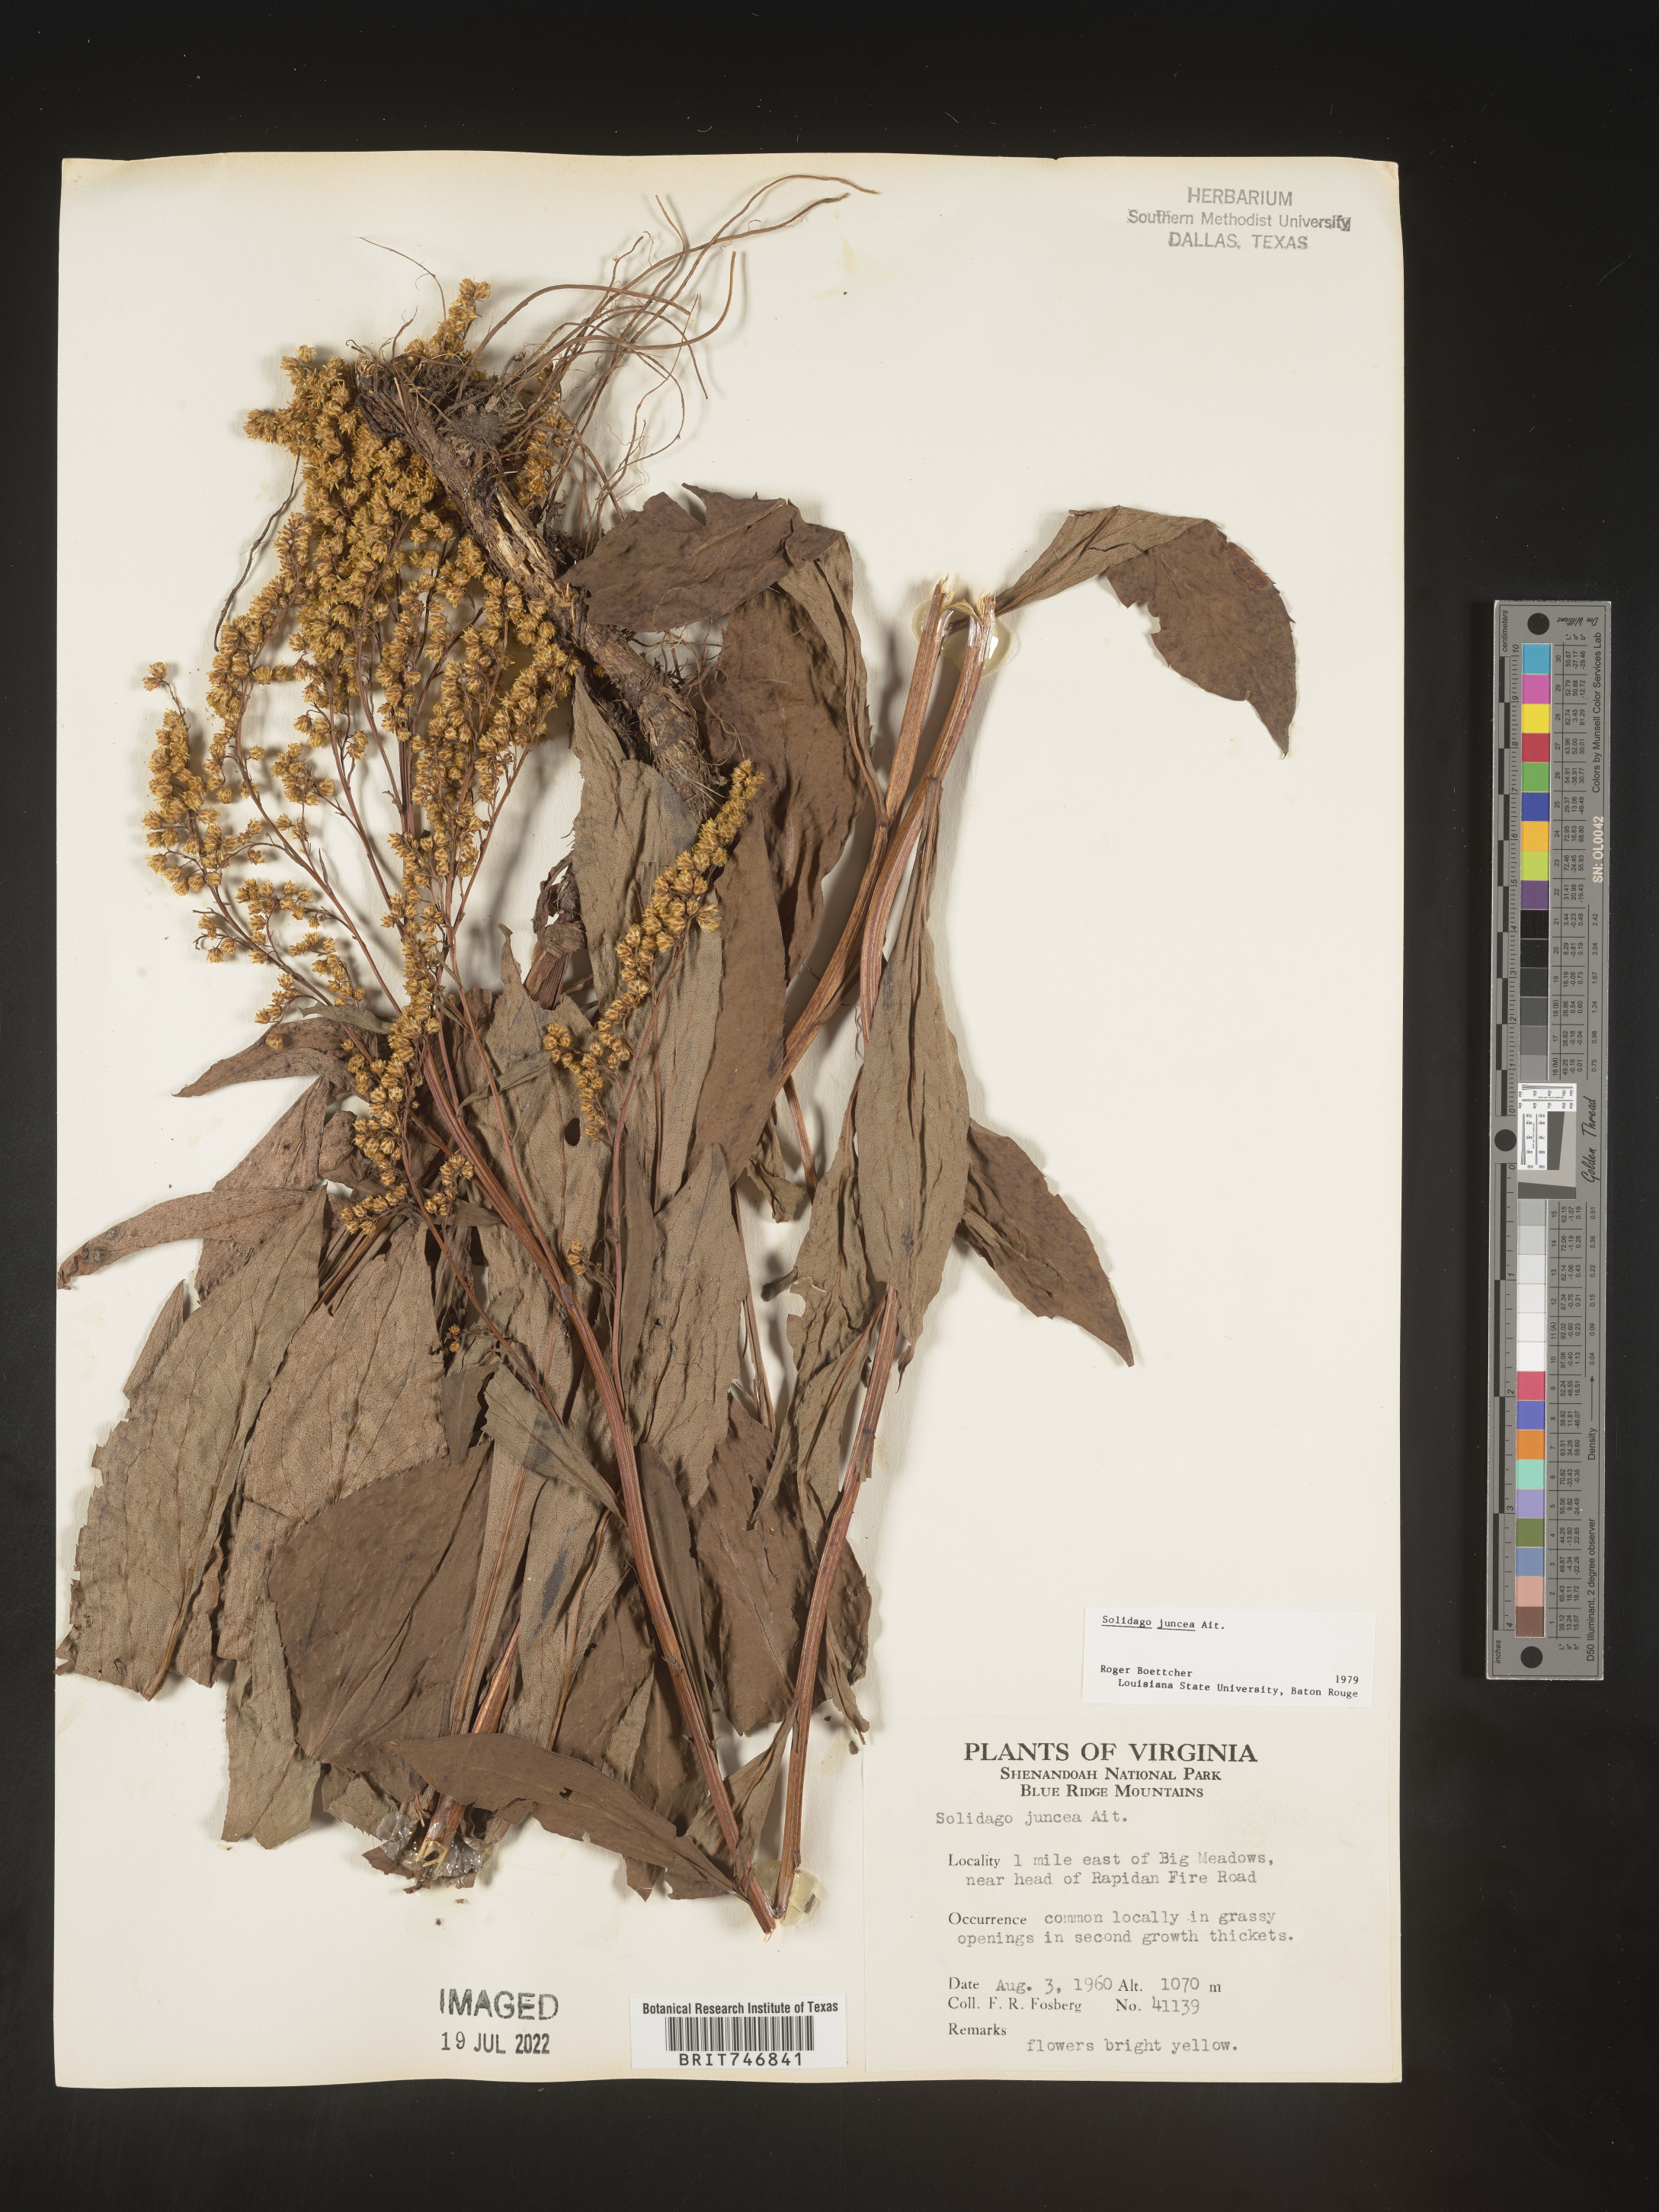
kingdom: Plantae
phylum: Tracheophyta
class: Magnoliopsida
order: Asterales
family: Asteraceae
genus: Solidago
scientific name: Solidago juncea
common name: Early goldenrod
